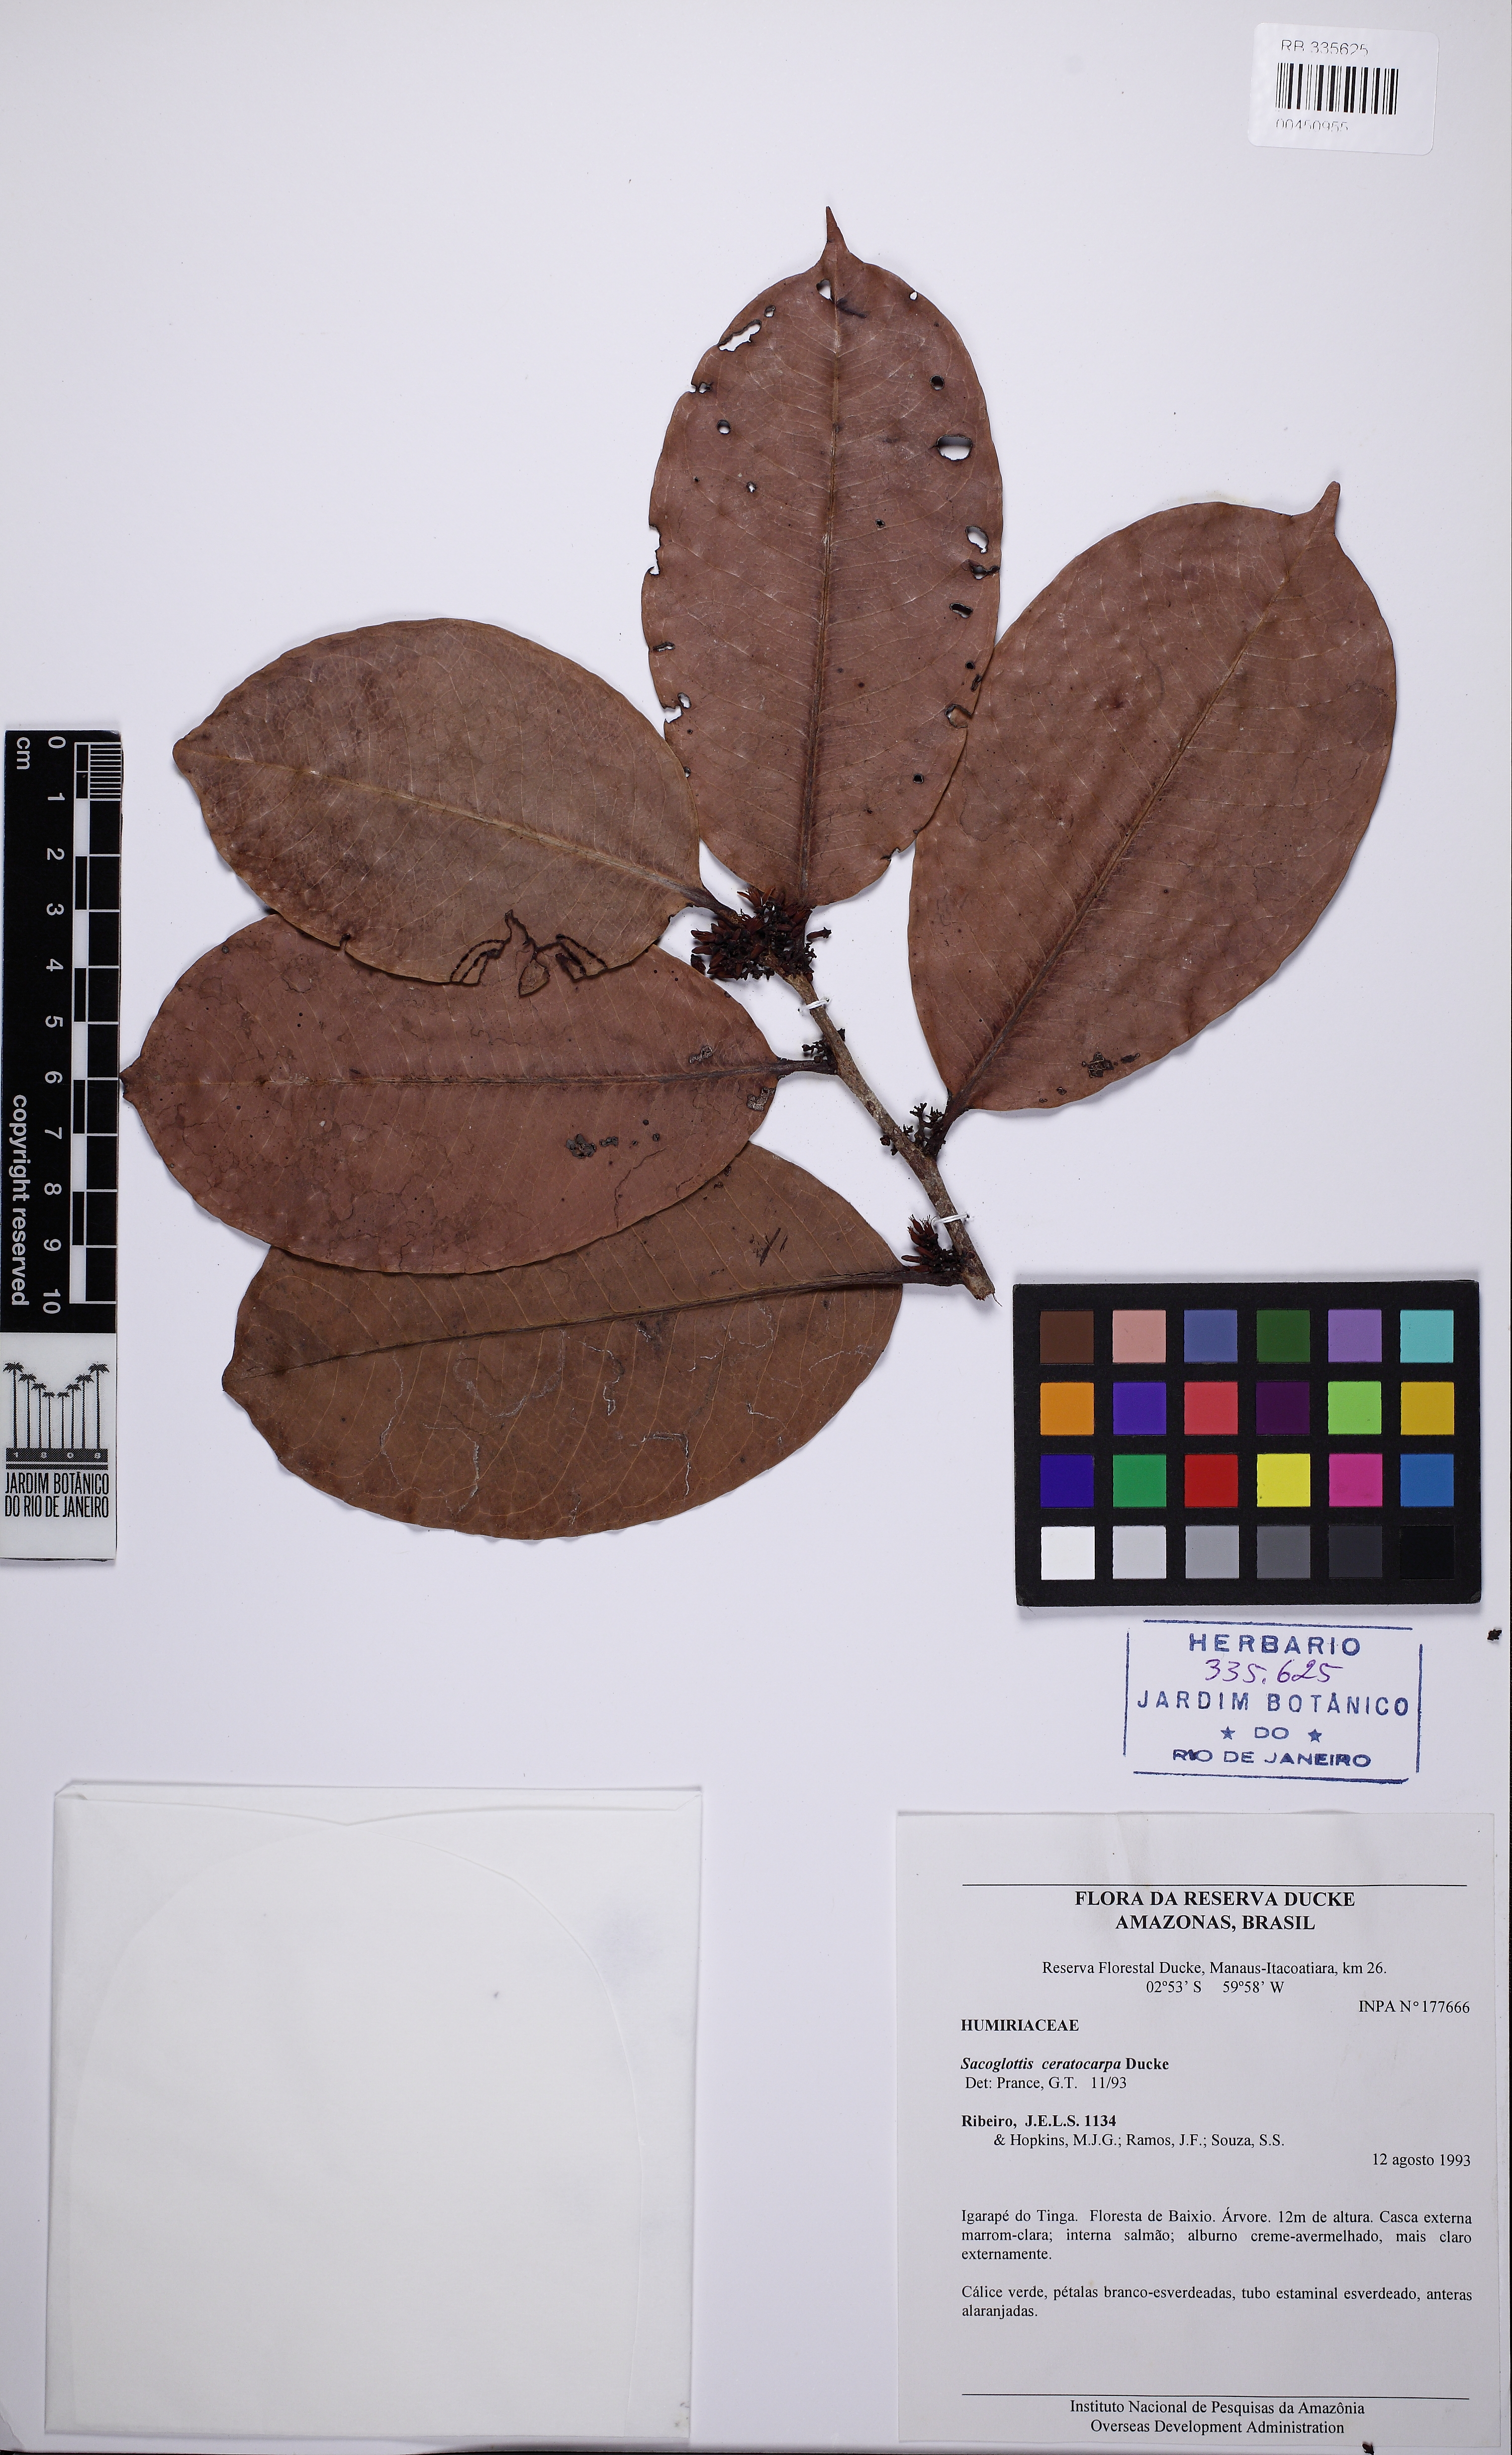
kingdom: Plantae
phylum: Tracheophyta
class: Magnoliopsida
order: Malpighiales
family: Humiriaceae
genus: Sacoglottis
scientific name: Sacoglottis ceratocarpa
